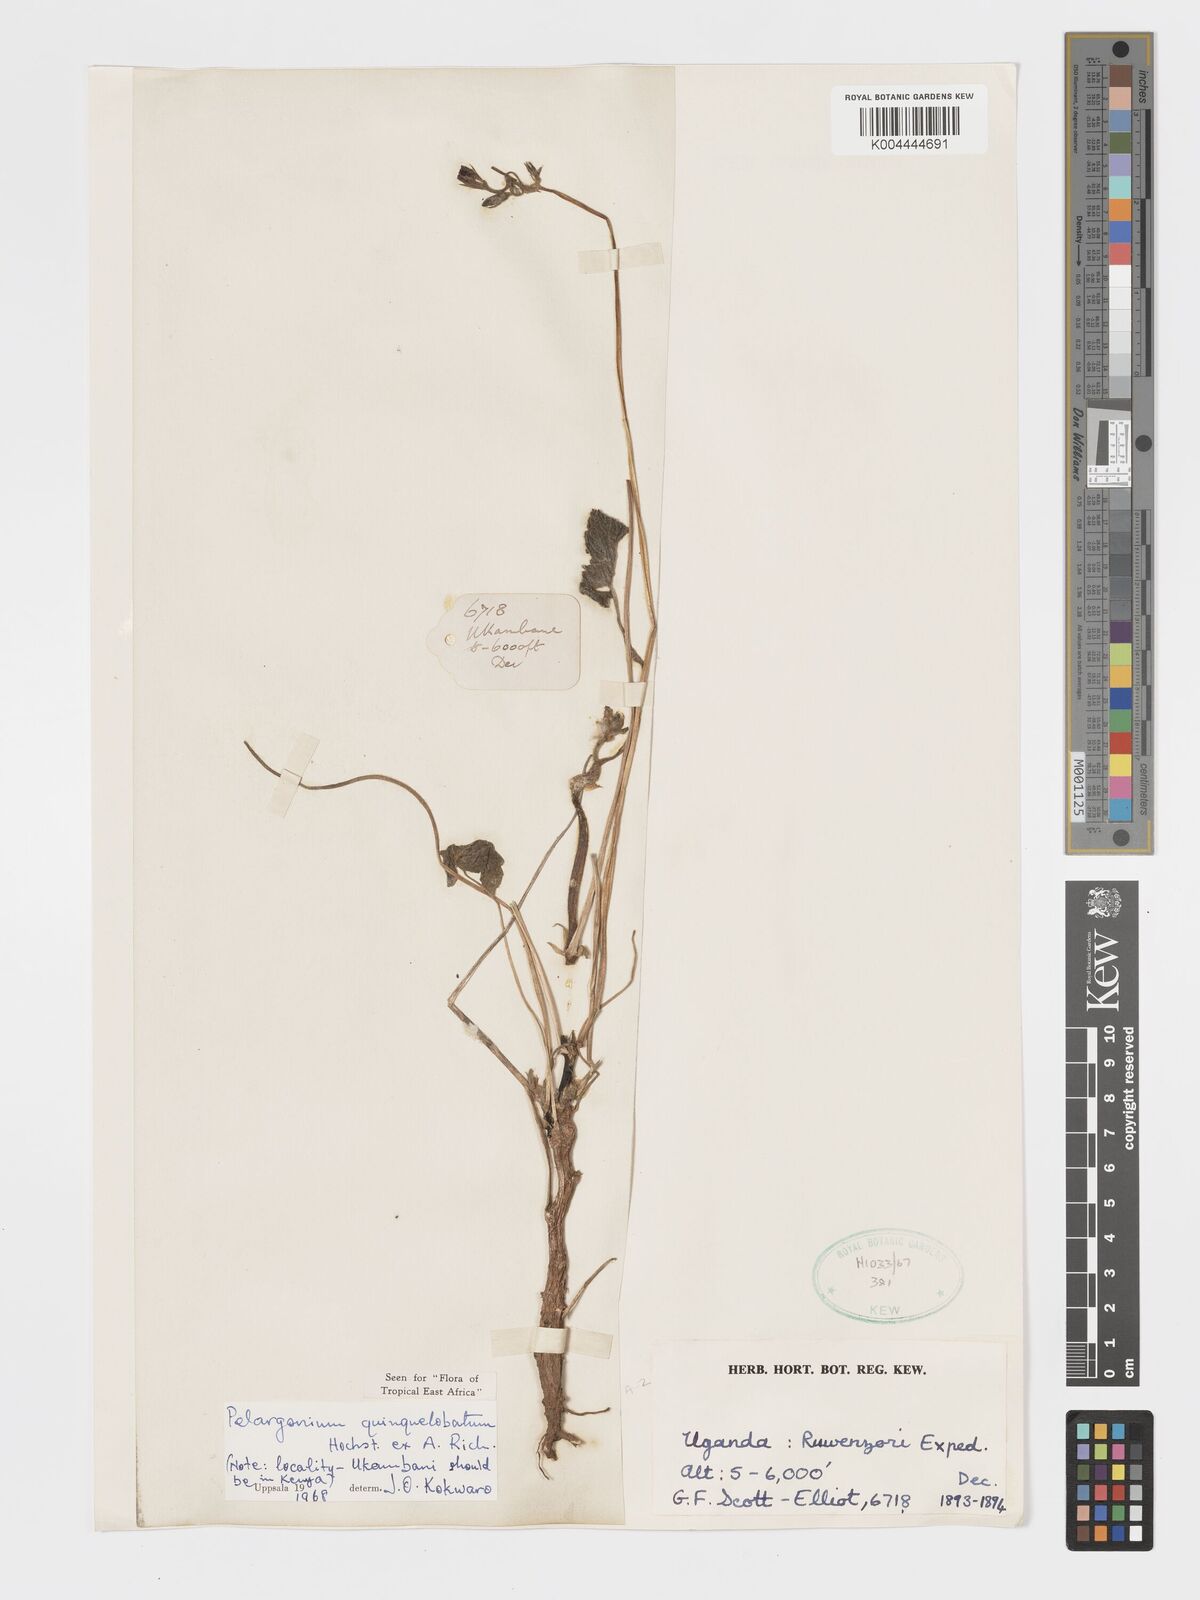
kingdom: Plantae
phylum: Tracheophyta
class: Magnoliopsida
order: Geraniales
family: Geraniaceae
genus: Pelargonium
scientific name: Pelargonium quinquelobatum
